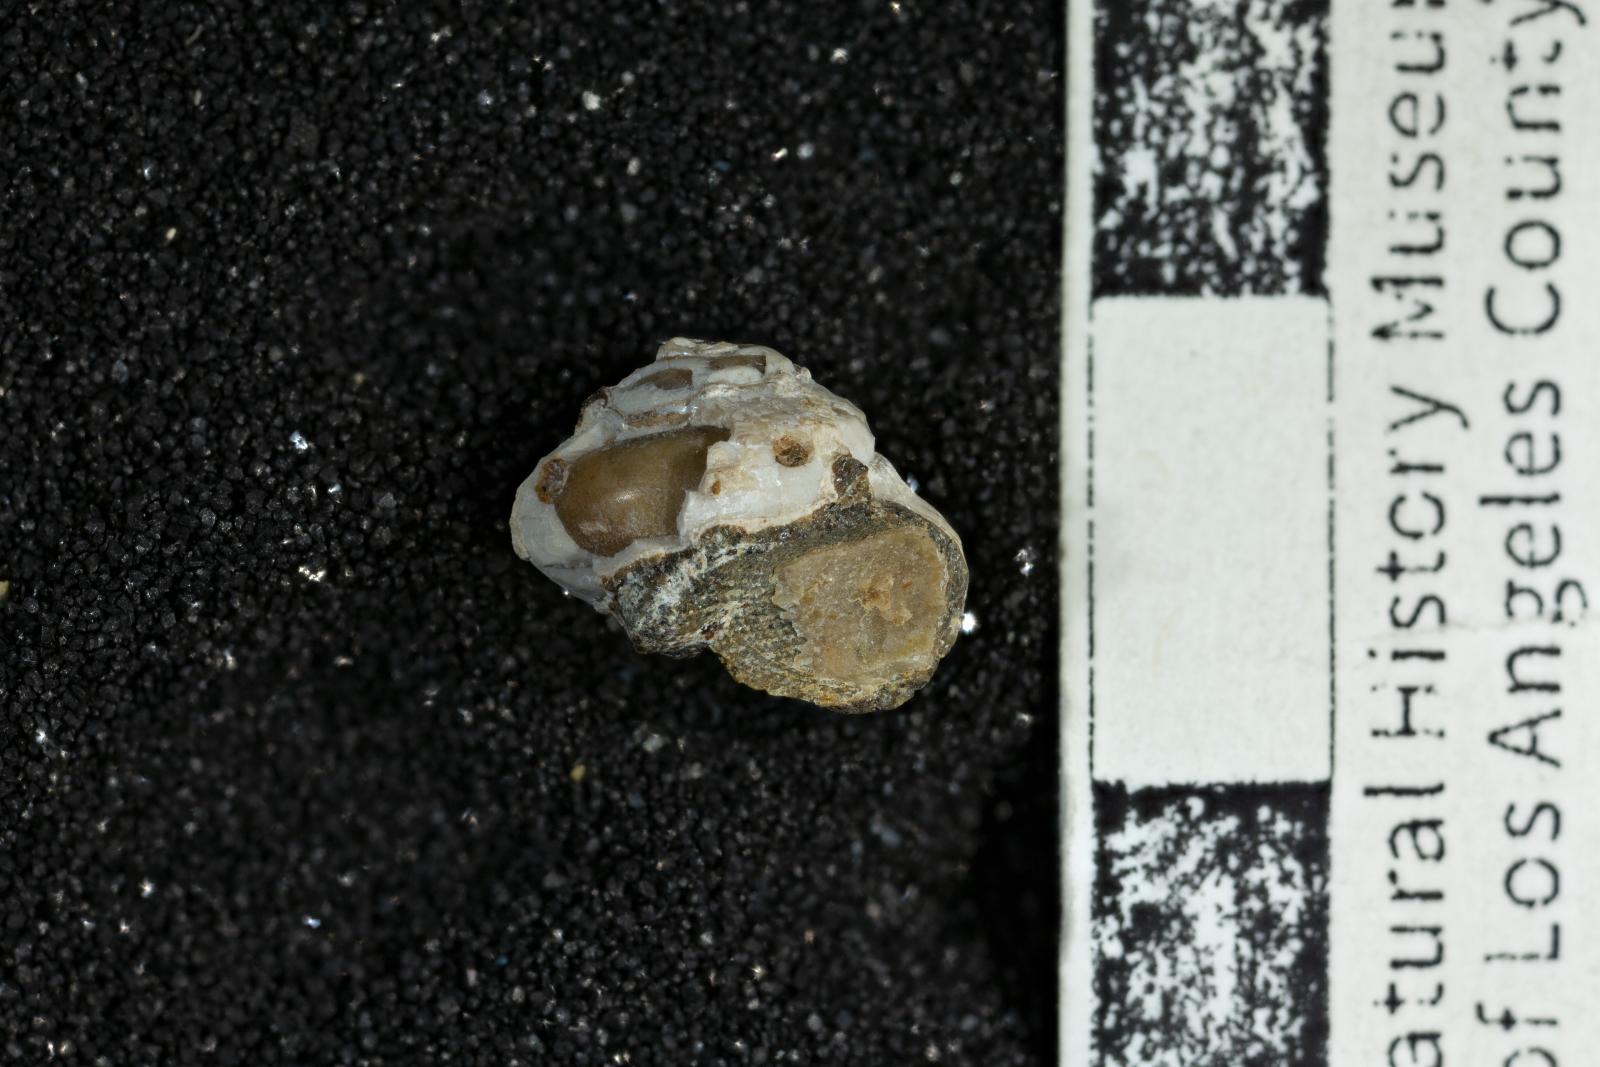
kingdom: Animalia
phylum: Mollusca
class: Gastropoda
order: Trochida
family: Margaritidae
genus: Afrollonia
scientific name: Afrollonia
